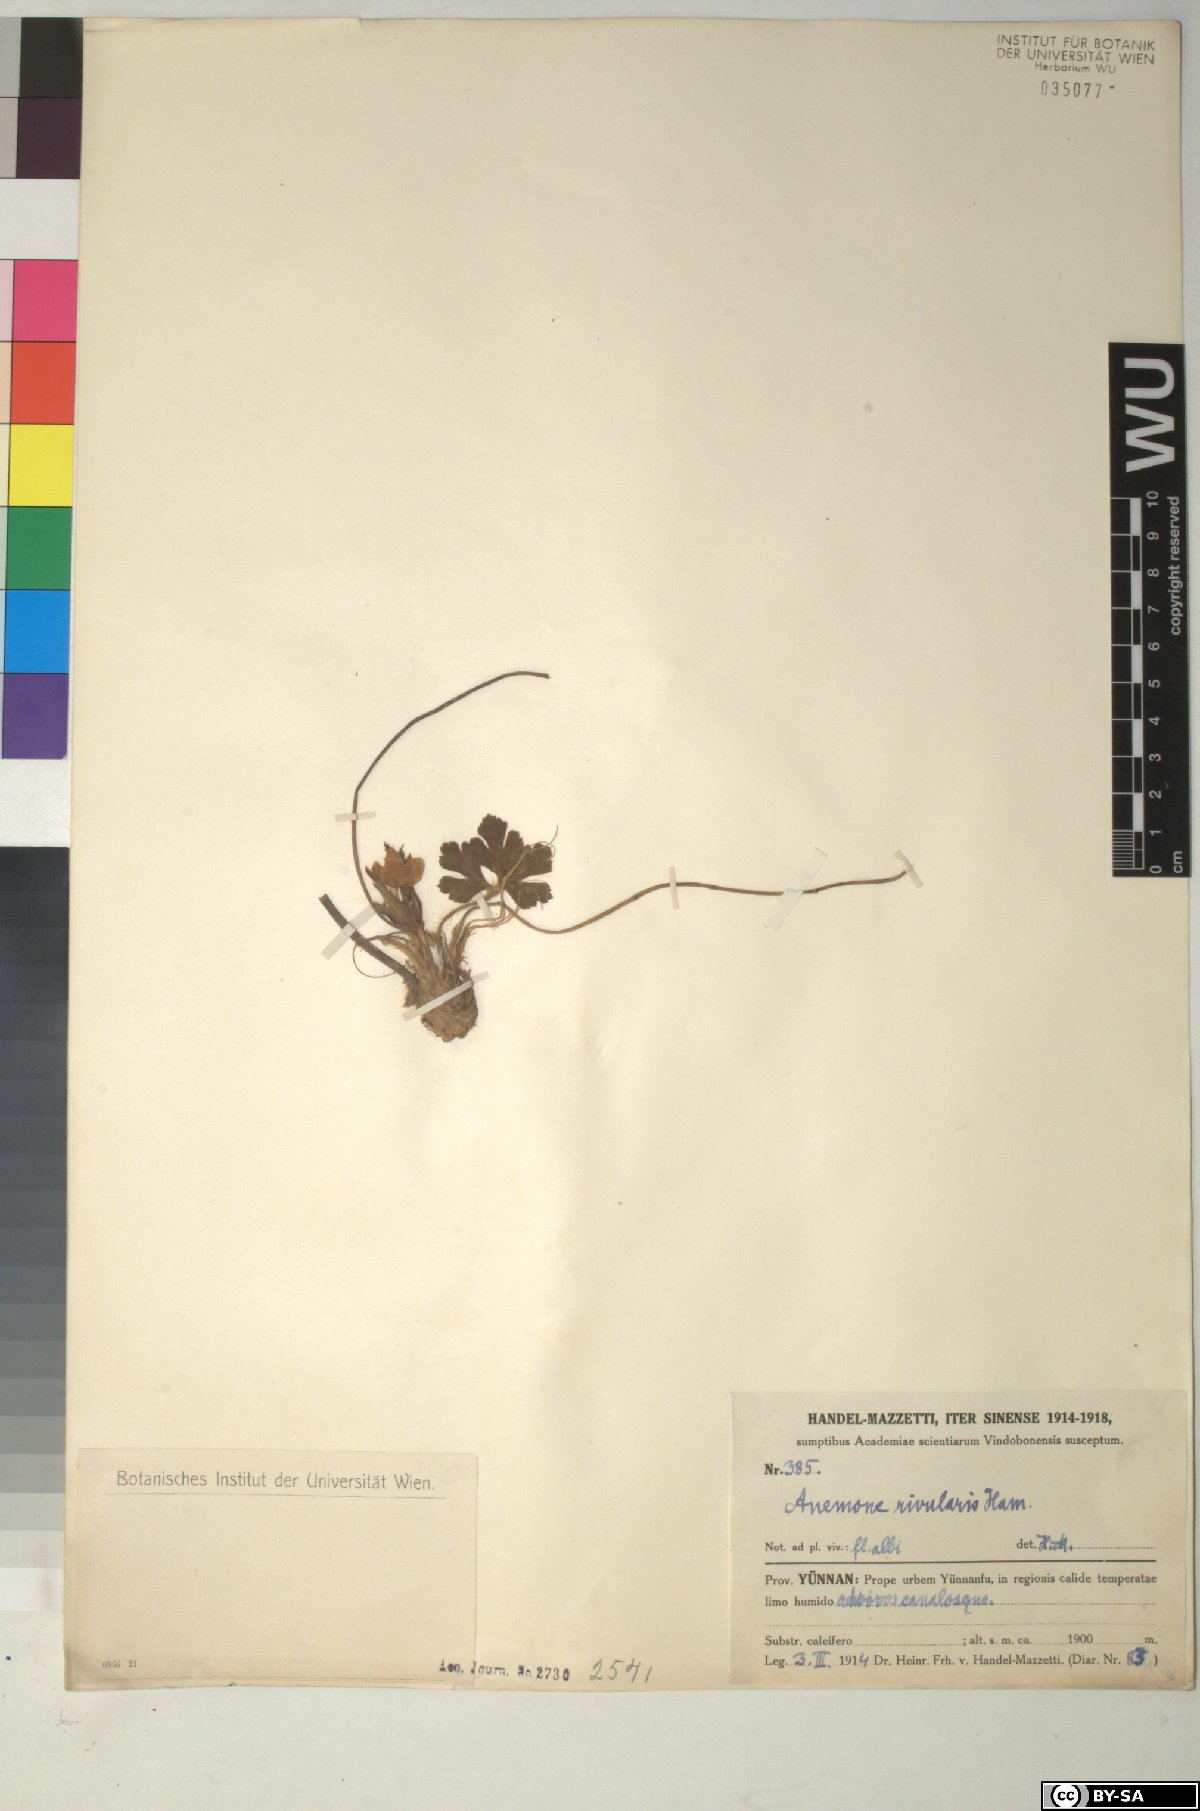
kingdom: Plantae
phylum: Tracheophyta
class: Magnoliopsida
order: Ranunculales
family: Ranunculaceae
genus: Eriocapitella
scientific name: Eriocapitella rivularis
